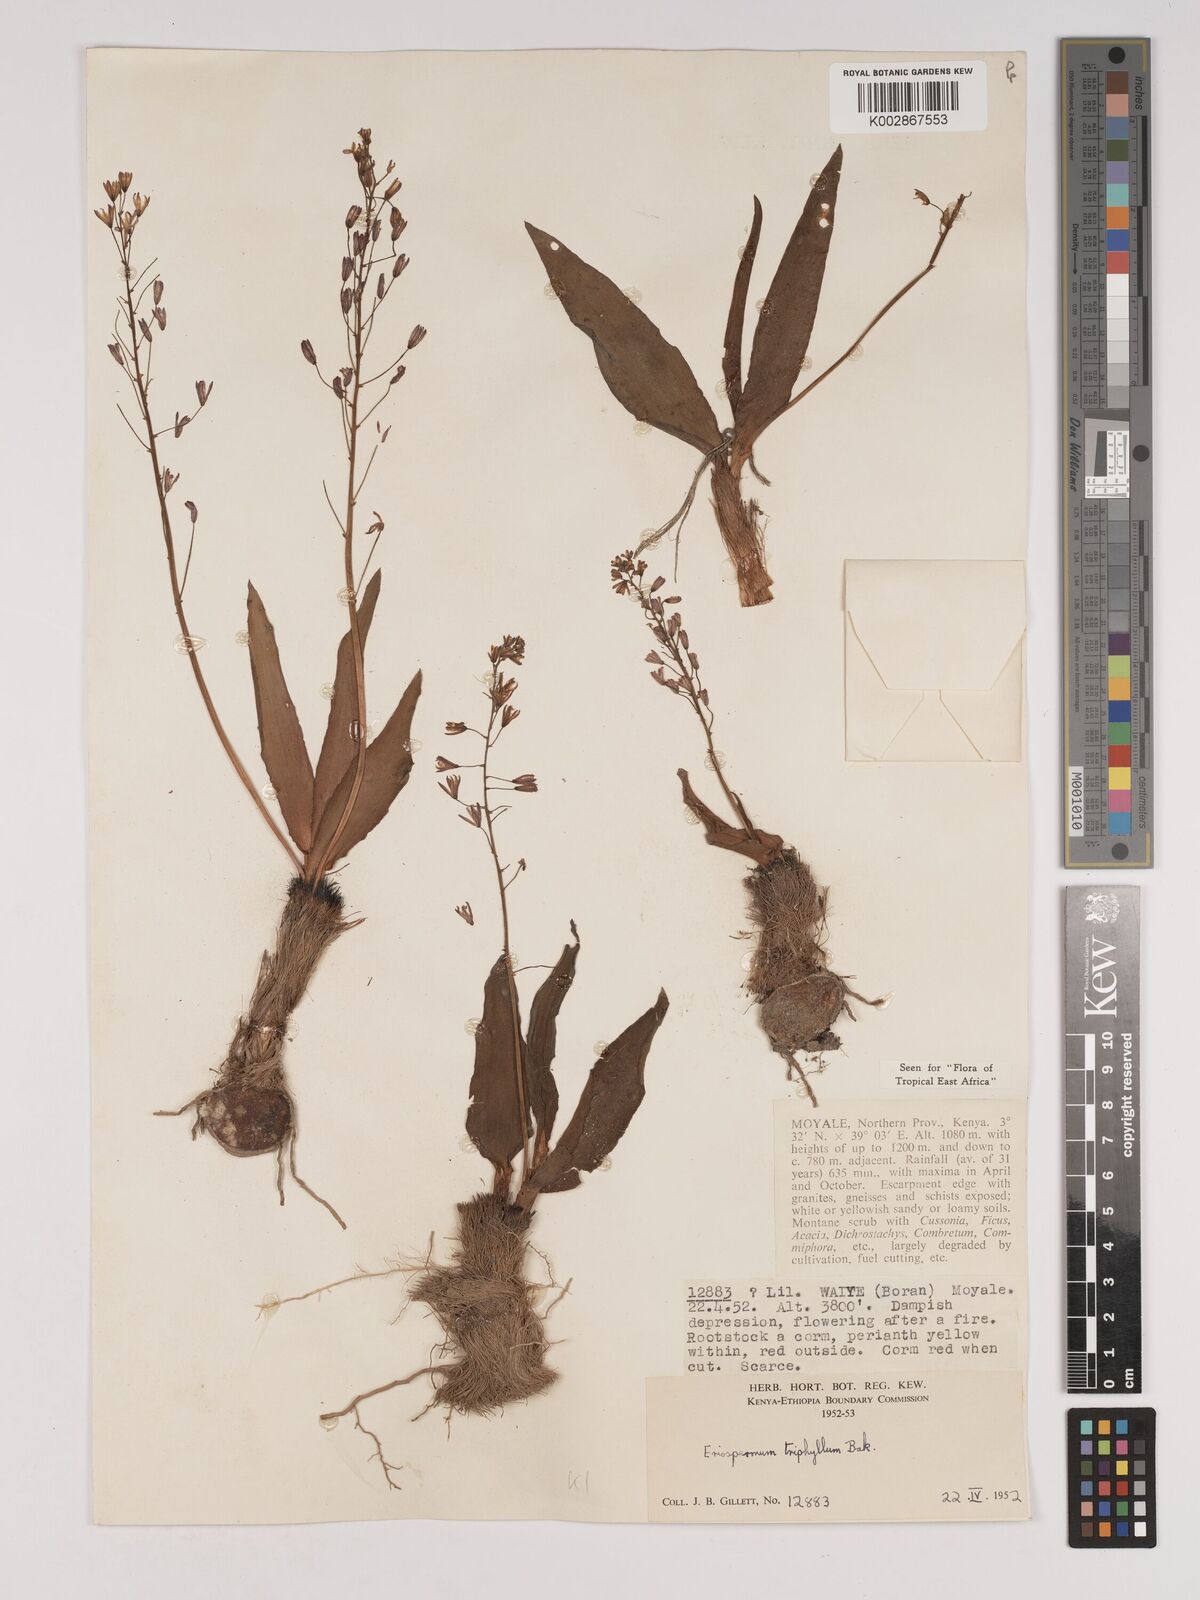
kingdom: Plantae
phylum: Tracheophyta
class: Liliopsida
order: Asparagales
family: Asparagaceae
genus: Eriospermum
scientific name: Eriospermum triphyllum
